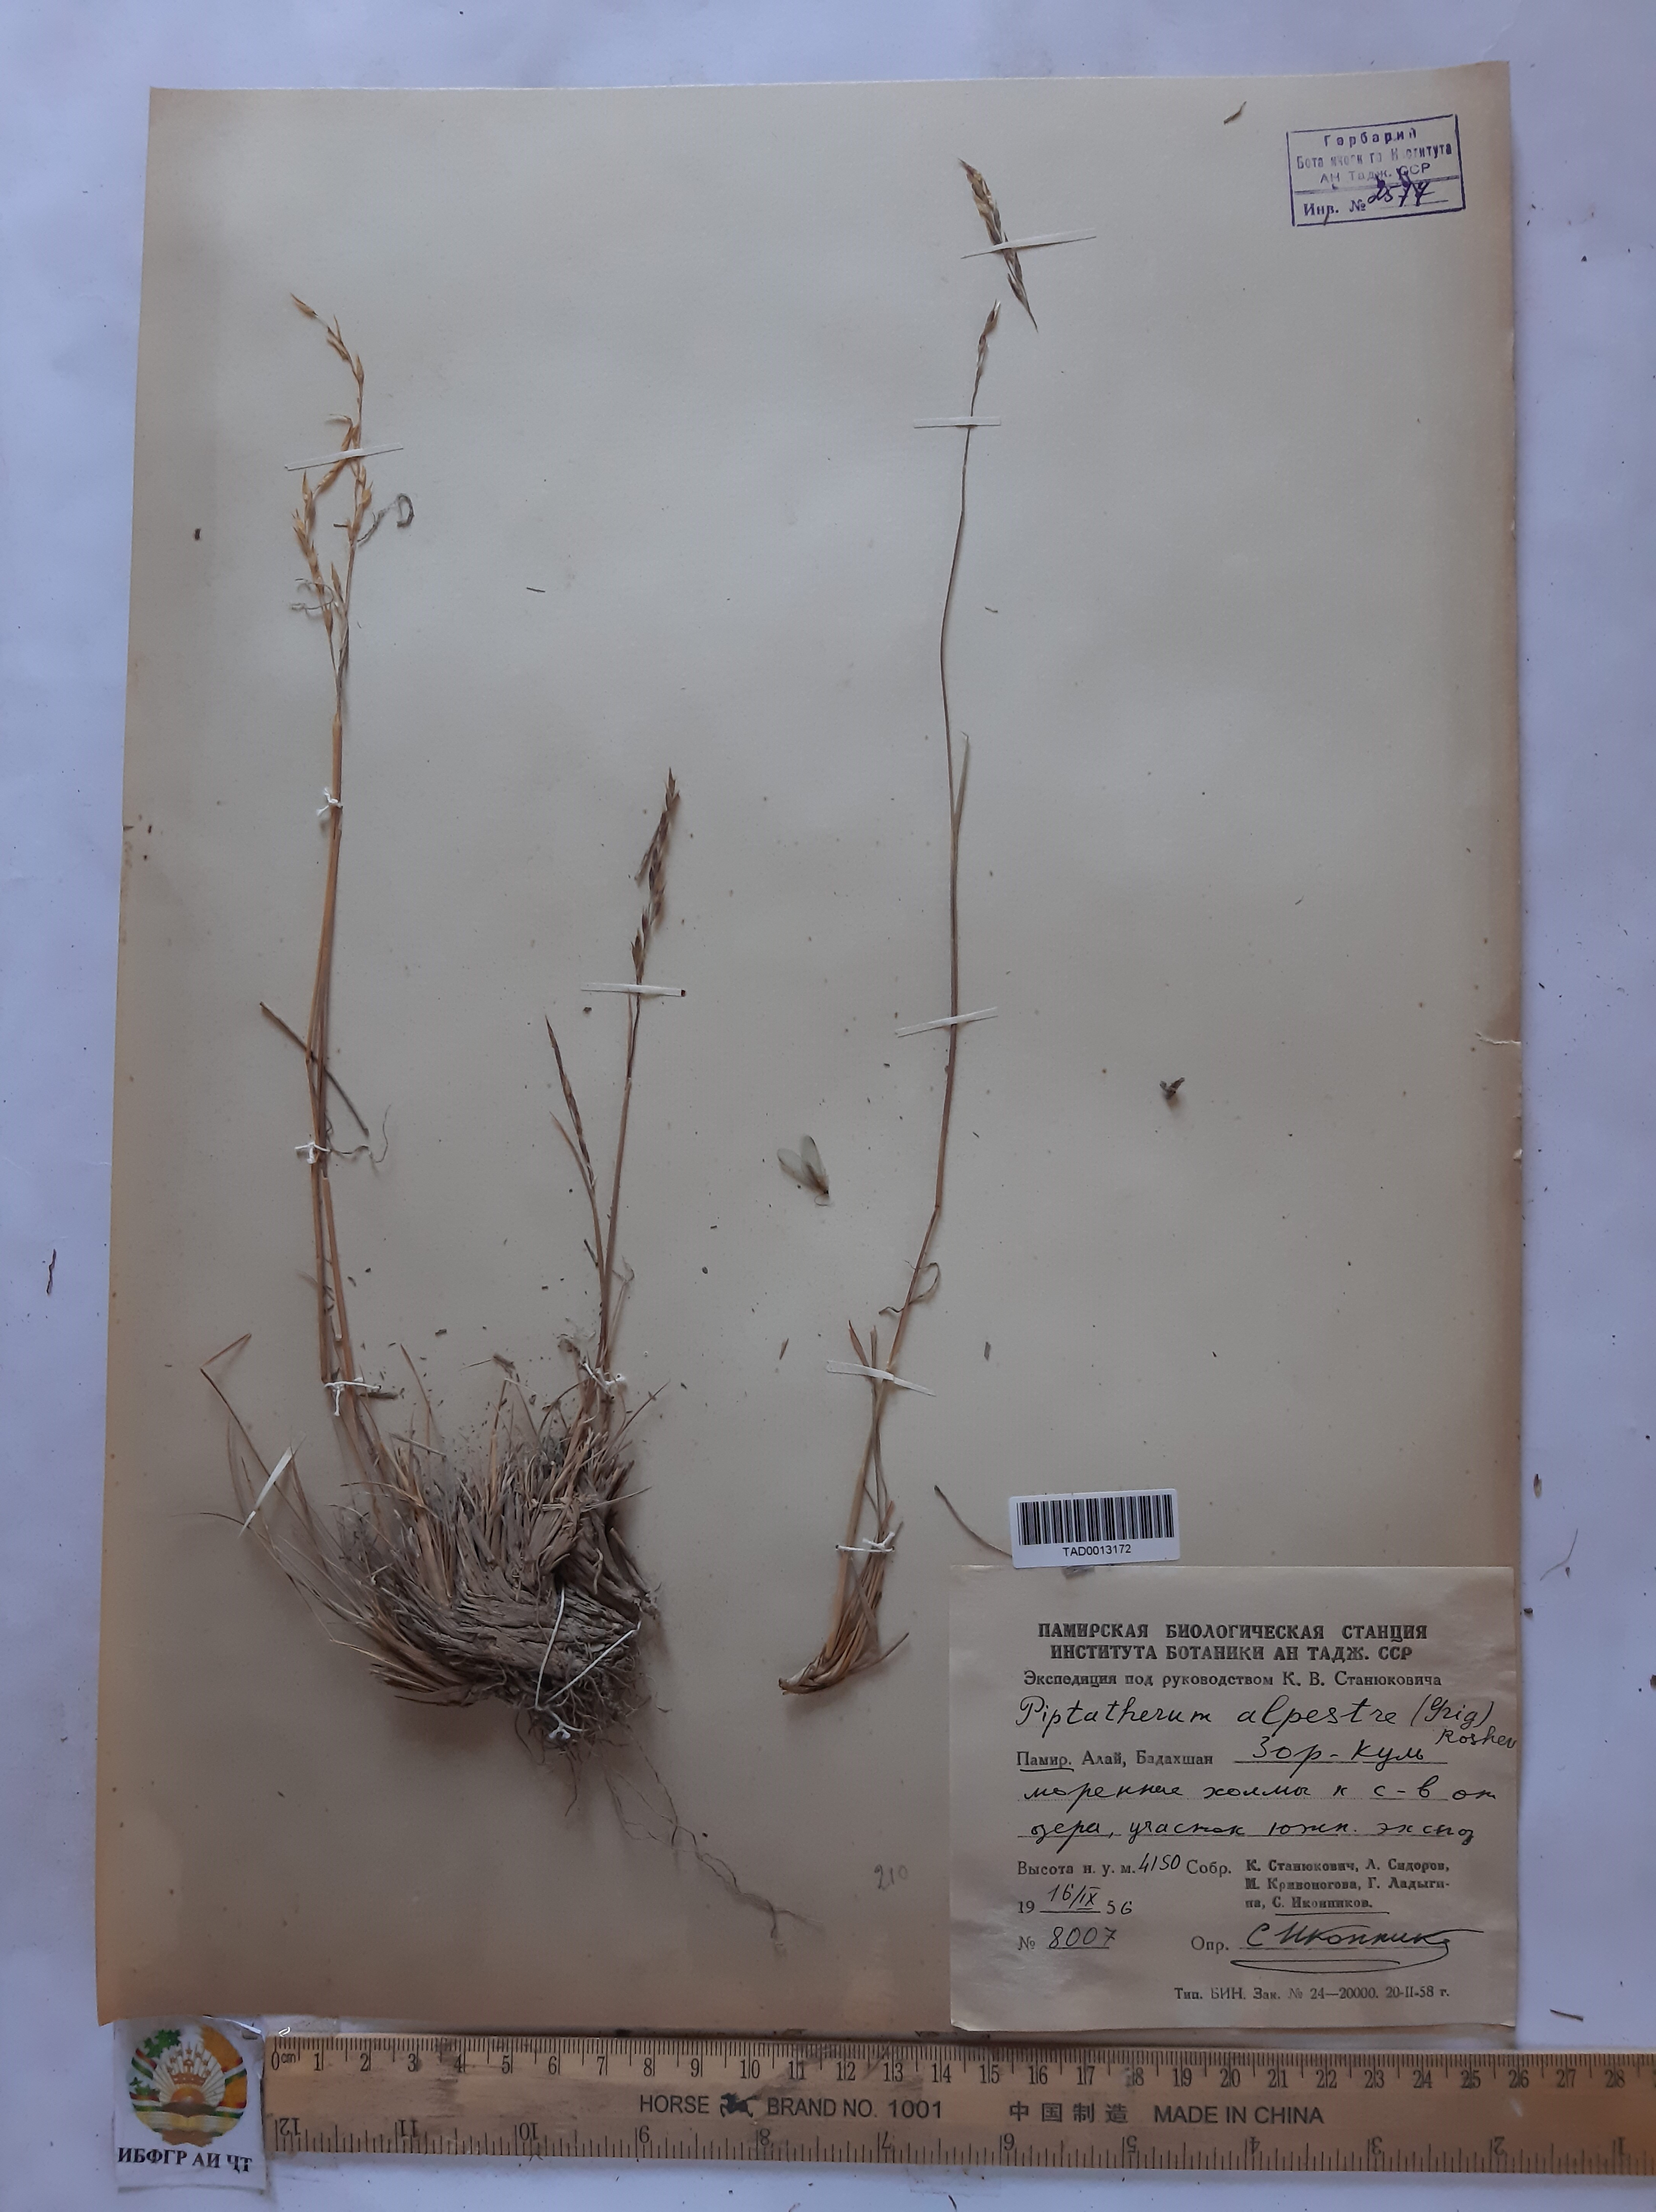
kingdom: Plantae
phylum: Tracheophyta
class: Liliopsida
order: Poales
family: Poaceae
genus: Piptatherum
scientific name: Piptatherum alpestre
